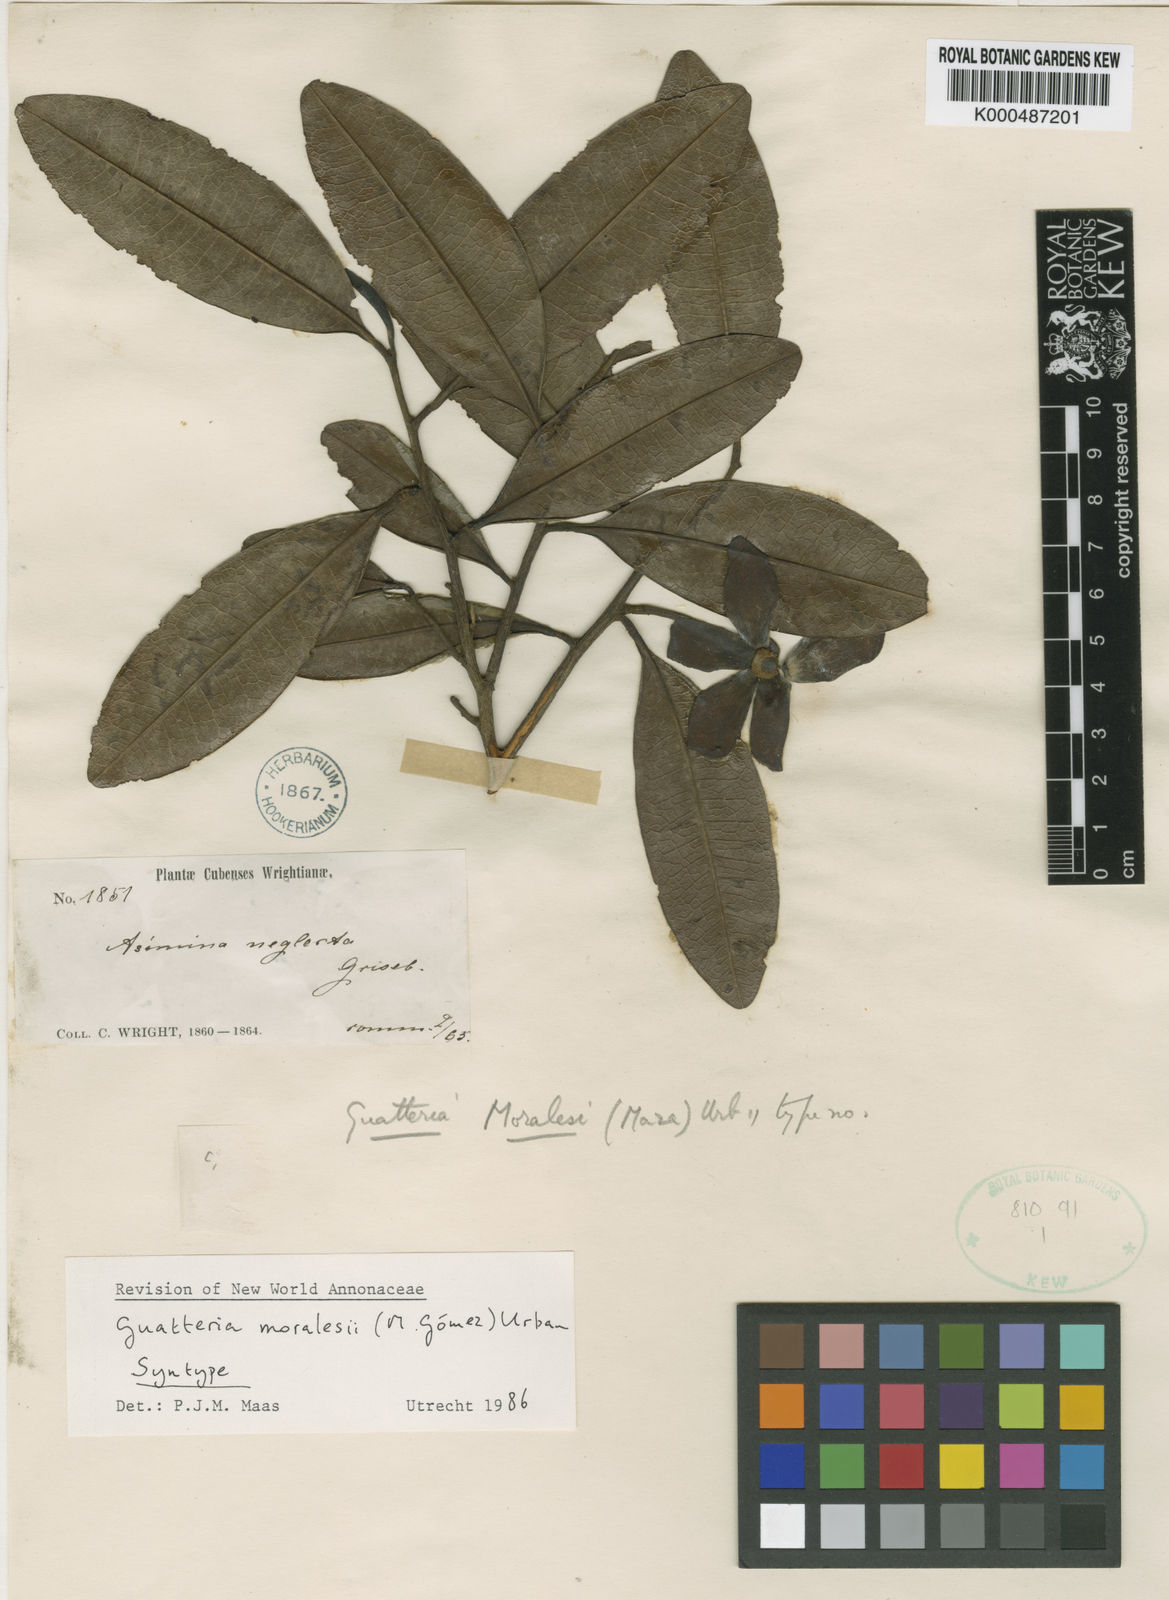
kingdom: Plantae
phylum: Tracheophyta
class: Magnoliopsida
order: Magnoliales
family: Annonaceae
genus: Guatteria
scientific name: Guatteria blainii
